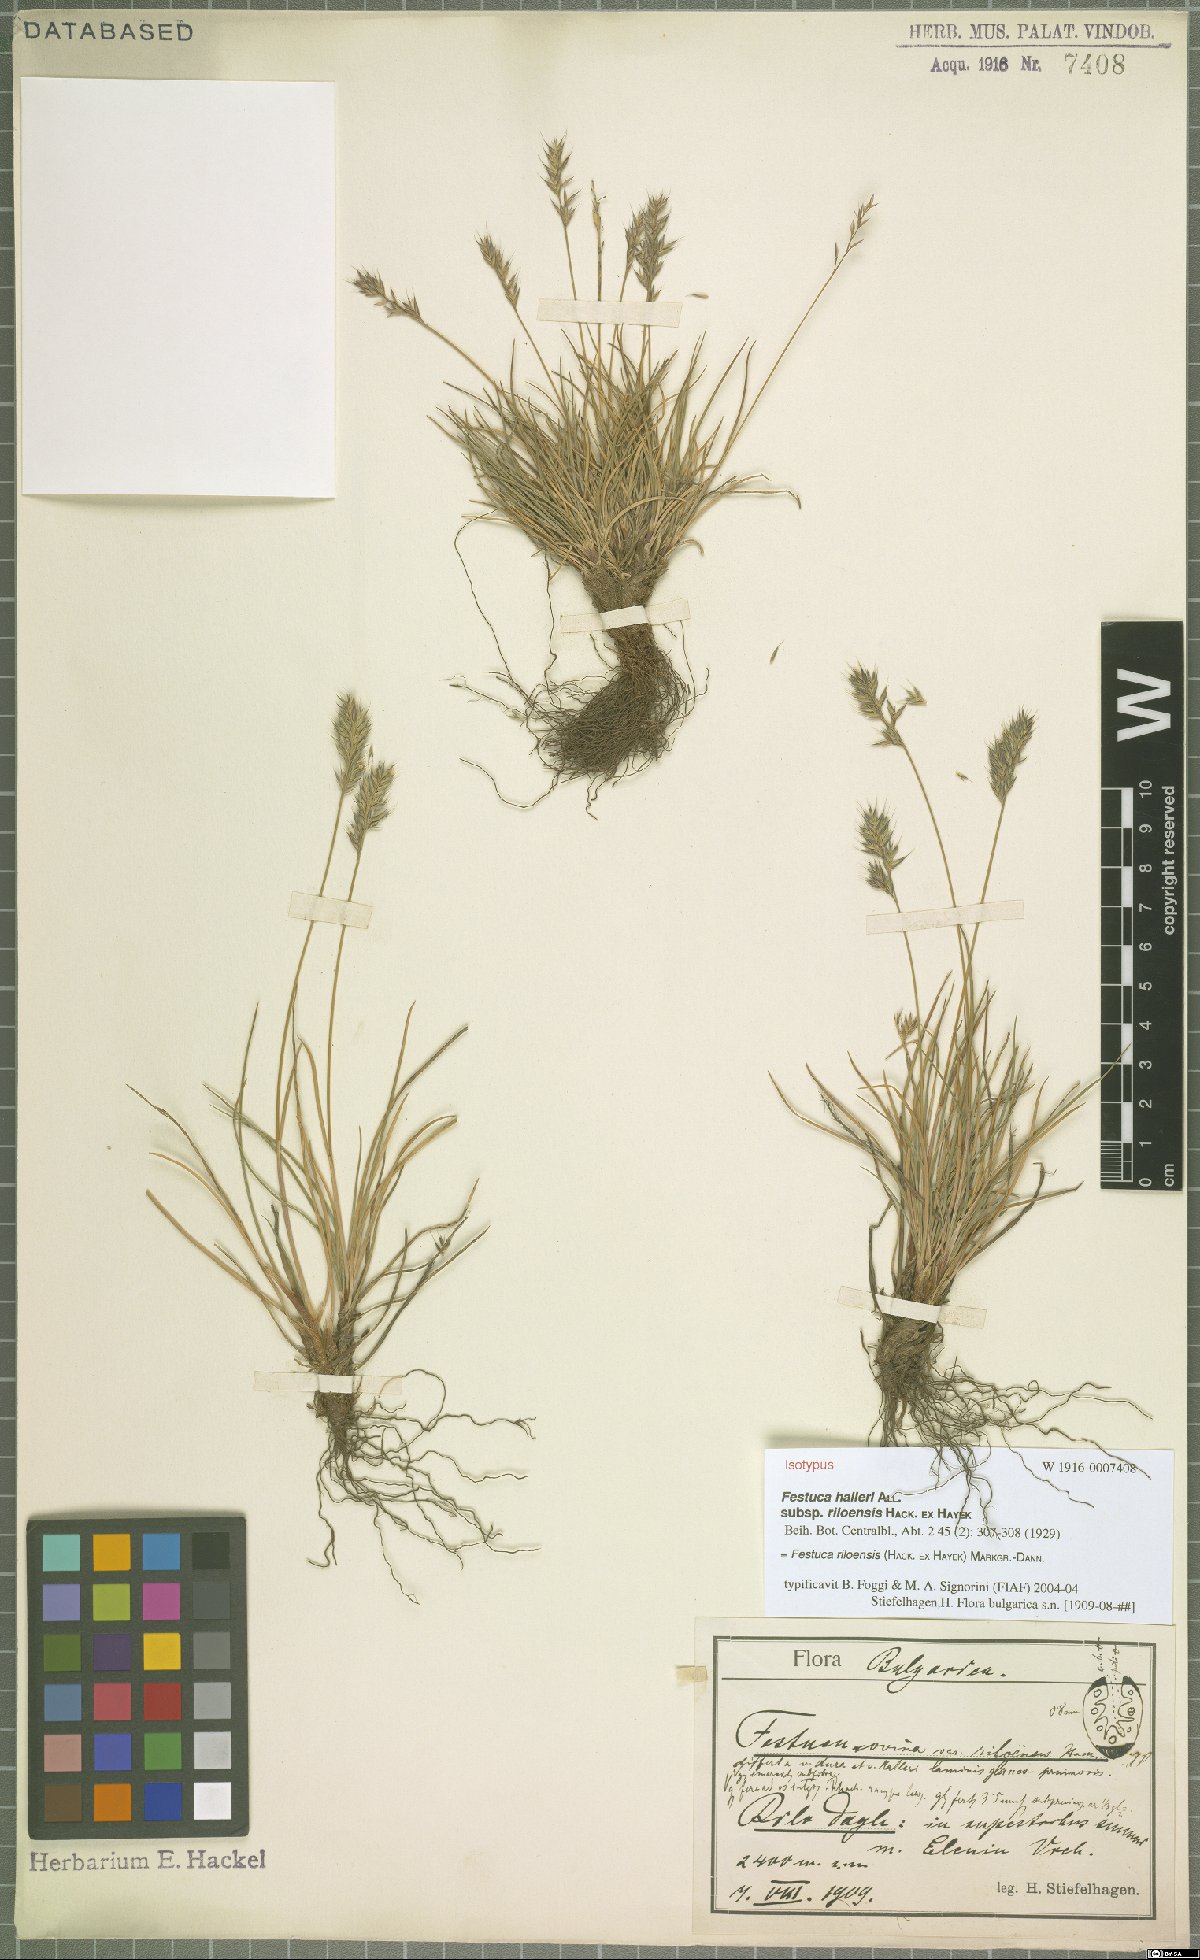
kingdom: Plantae
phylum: Tracheophyta
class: Liliopsida
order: Poales
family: Poaceae
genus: Festuca
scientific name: Festuca riloensis
